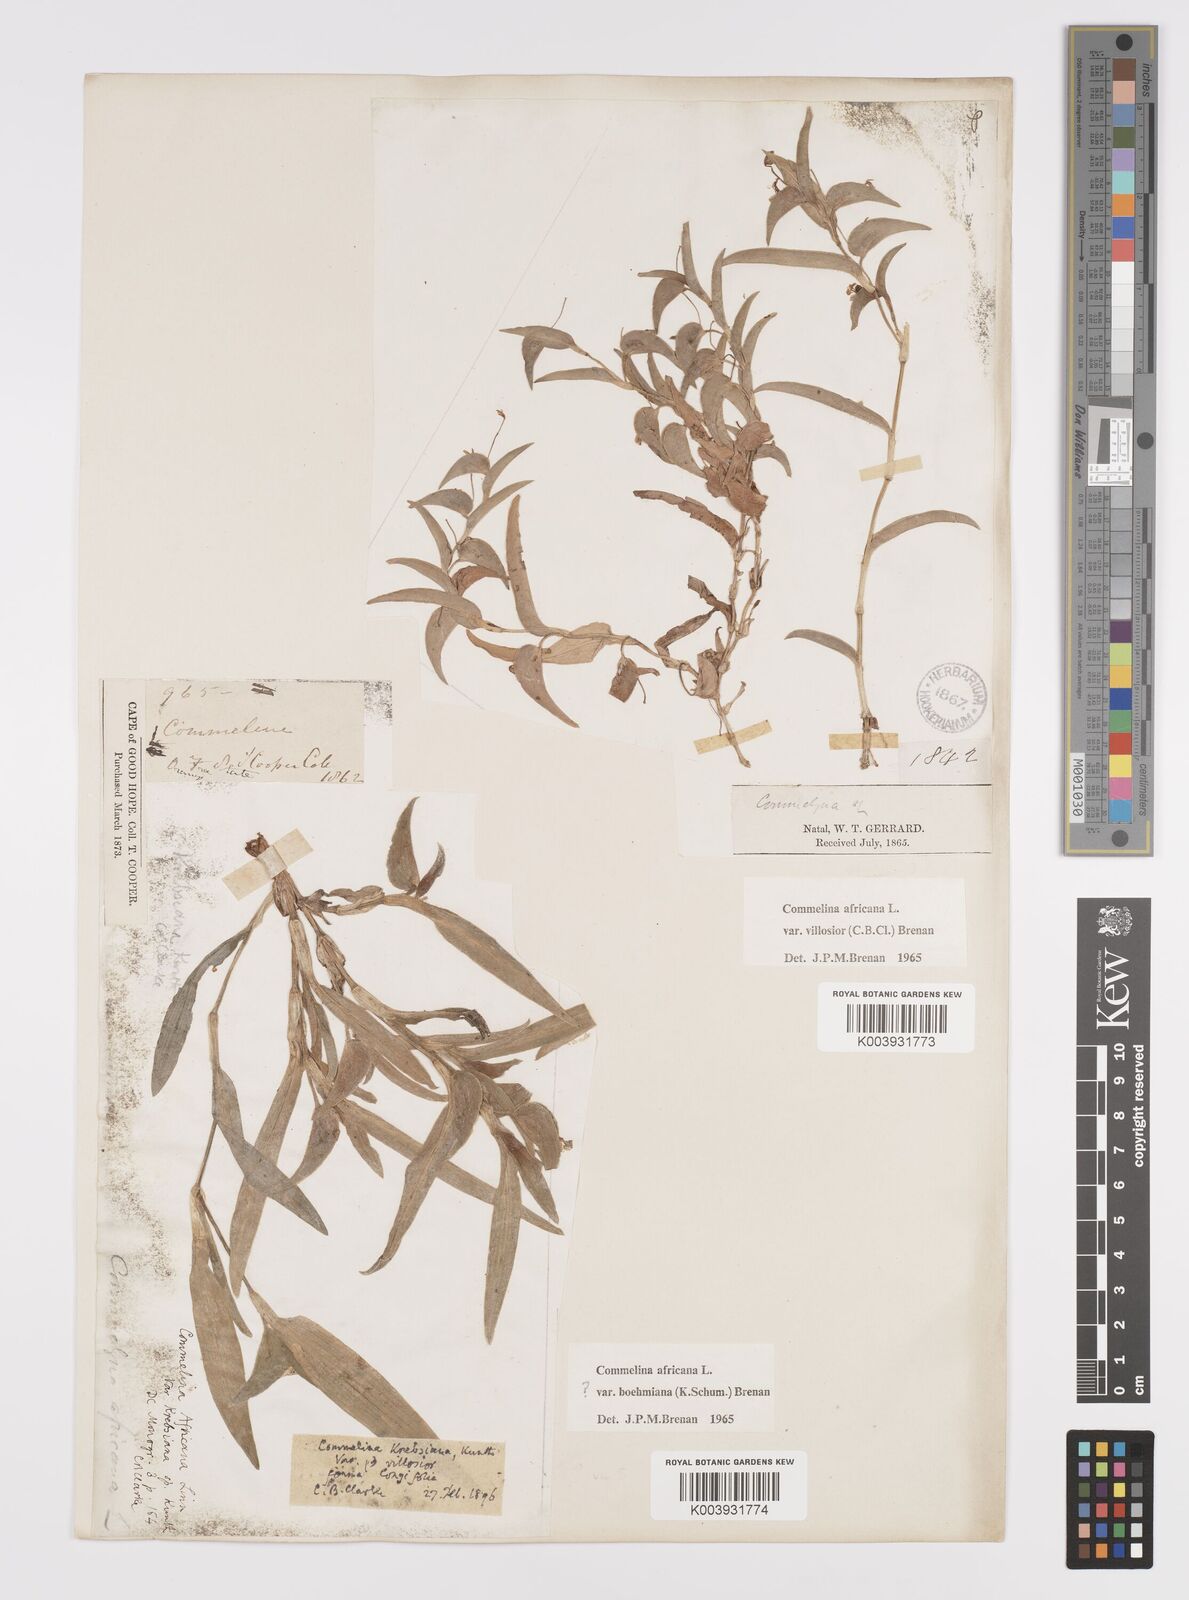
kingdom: Plantae
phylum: Tracheophyta
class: Liliopsida
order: Commelinales
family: Commelinaceae
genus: Commelina
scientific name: Commelina africana
